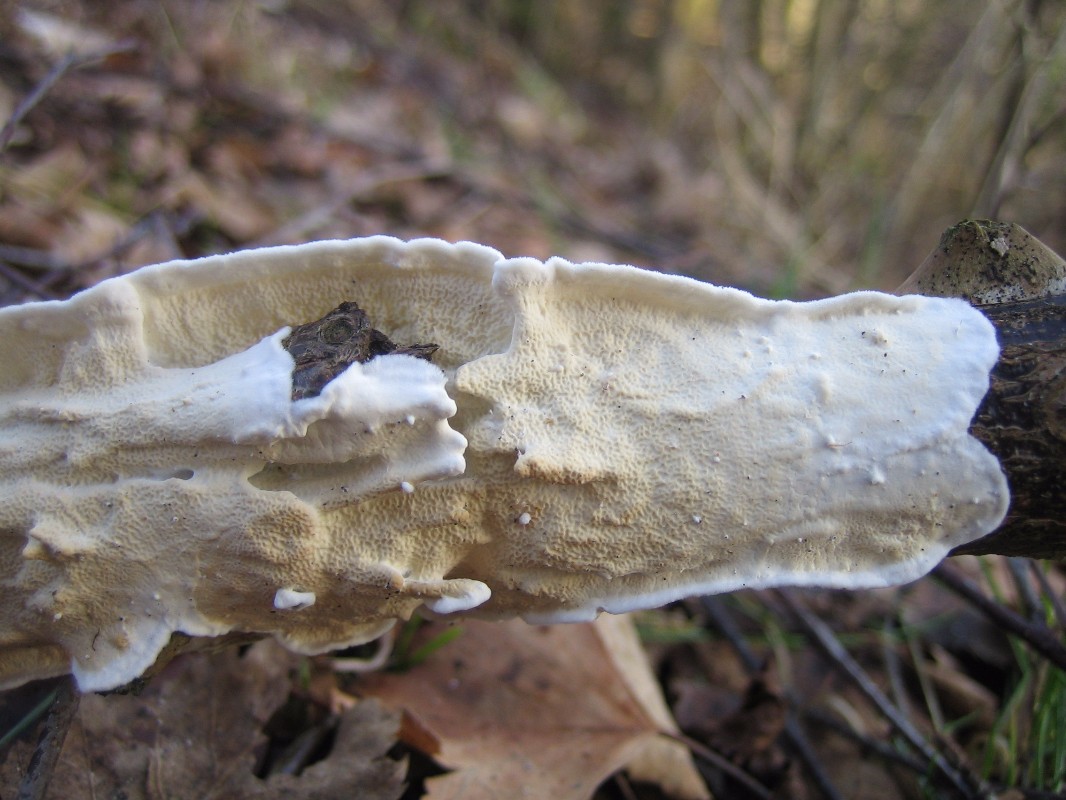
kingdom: Fungi
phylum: Basidiomycota
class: Agaricomycetes
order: Polyporales
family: Irpicaceae
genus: Byssomerulius
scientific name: Byssomerulius corium
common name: læder-åresvamp
